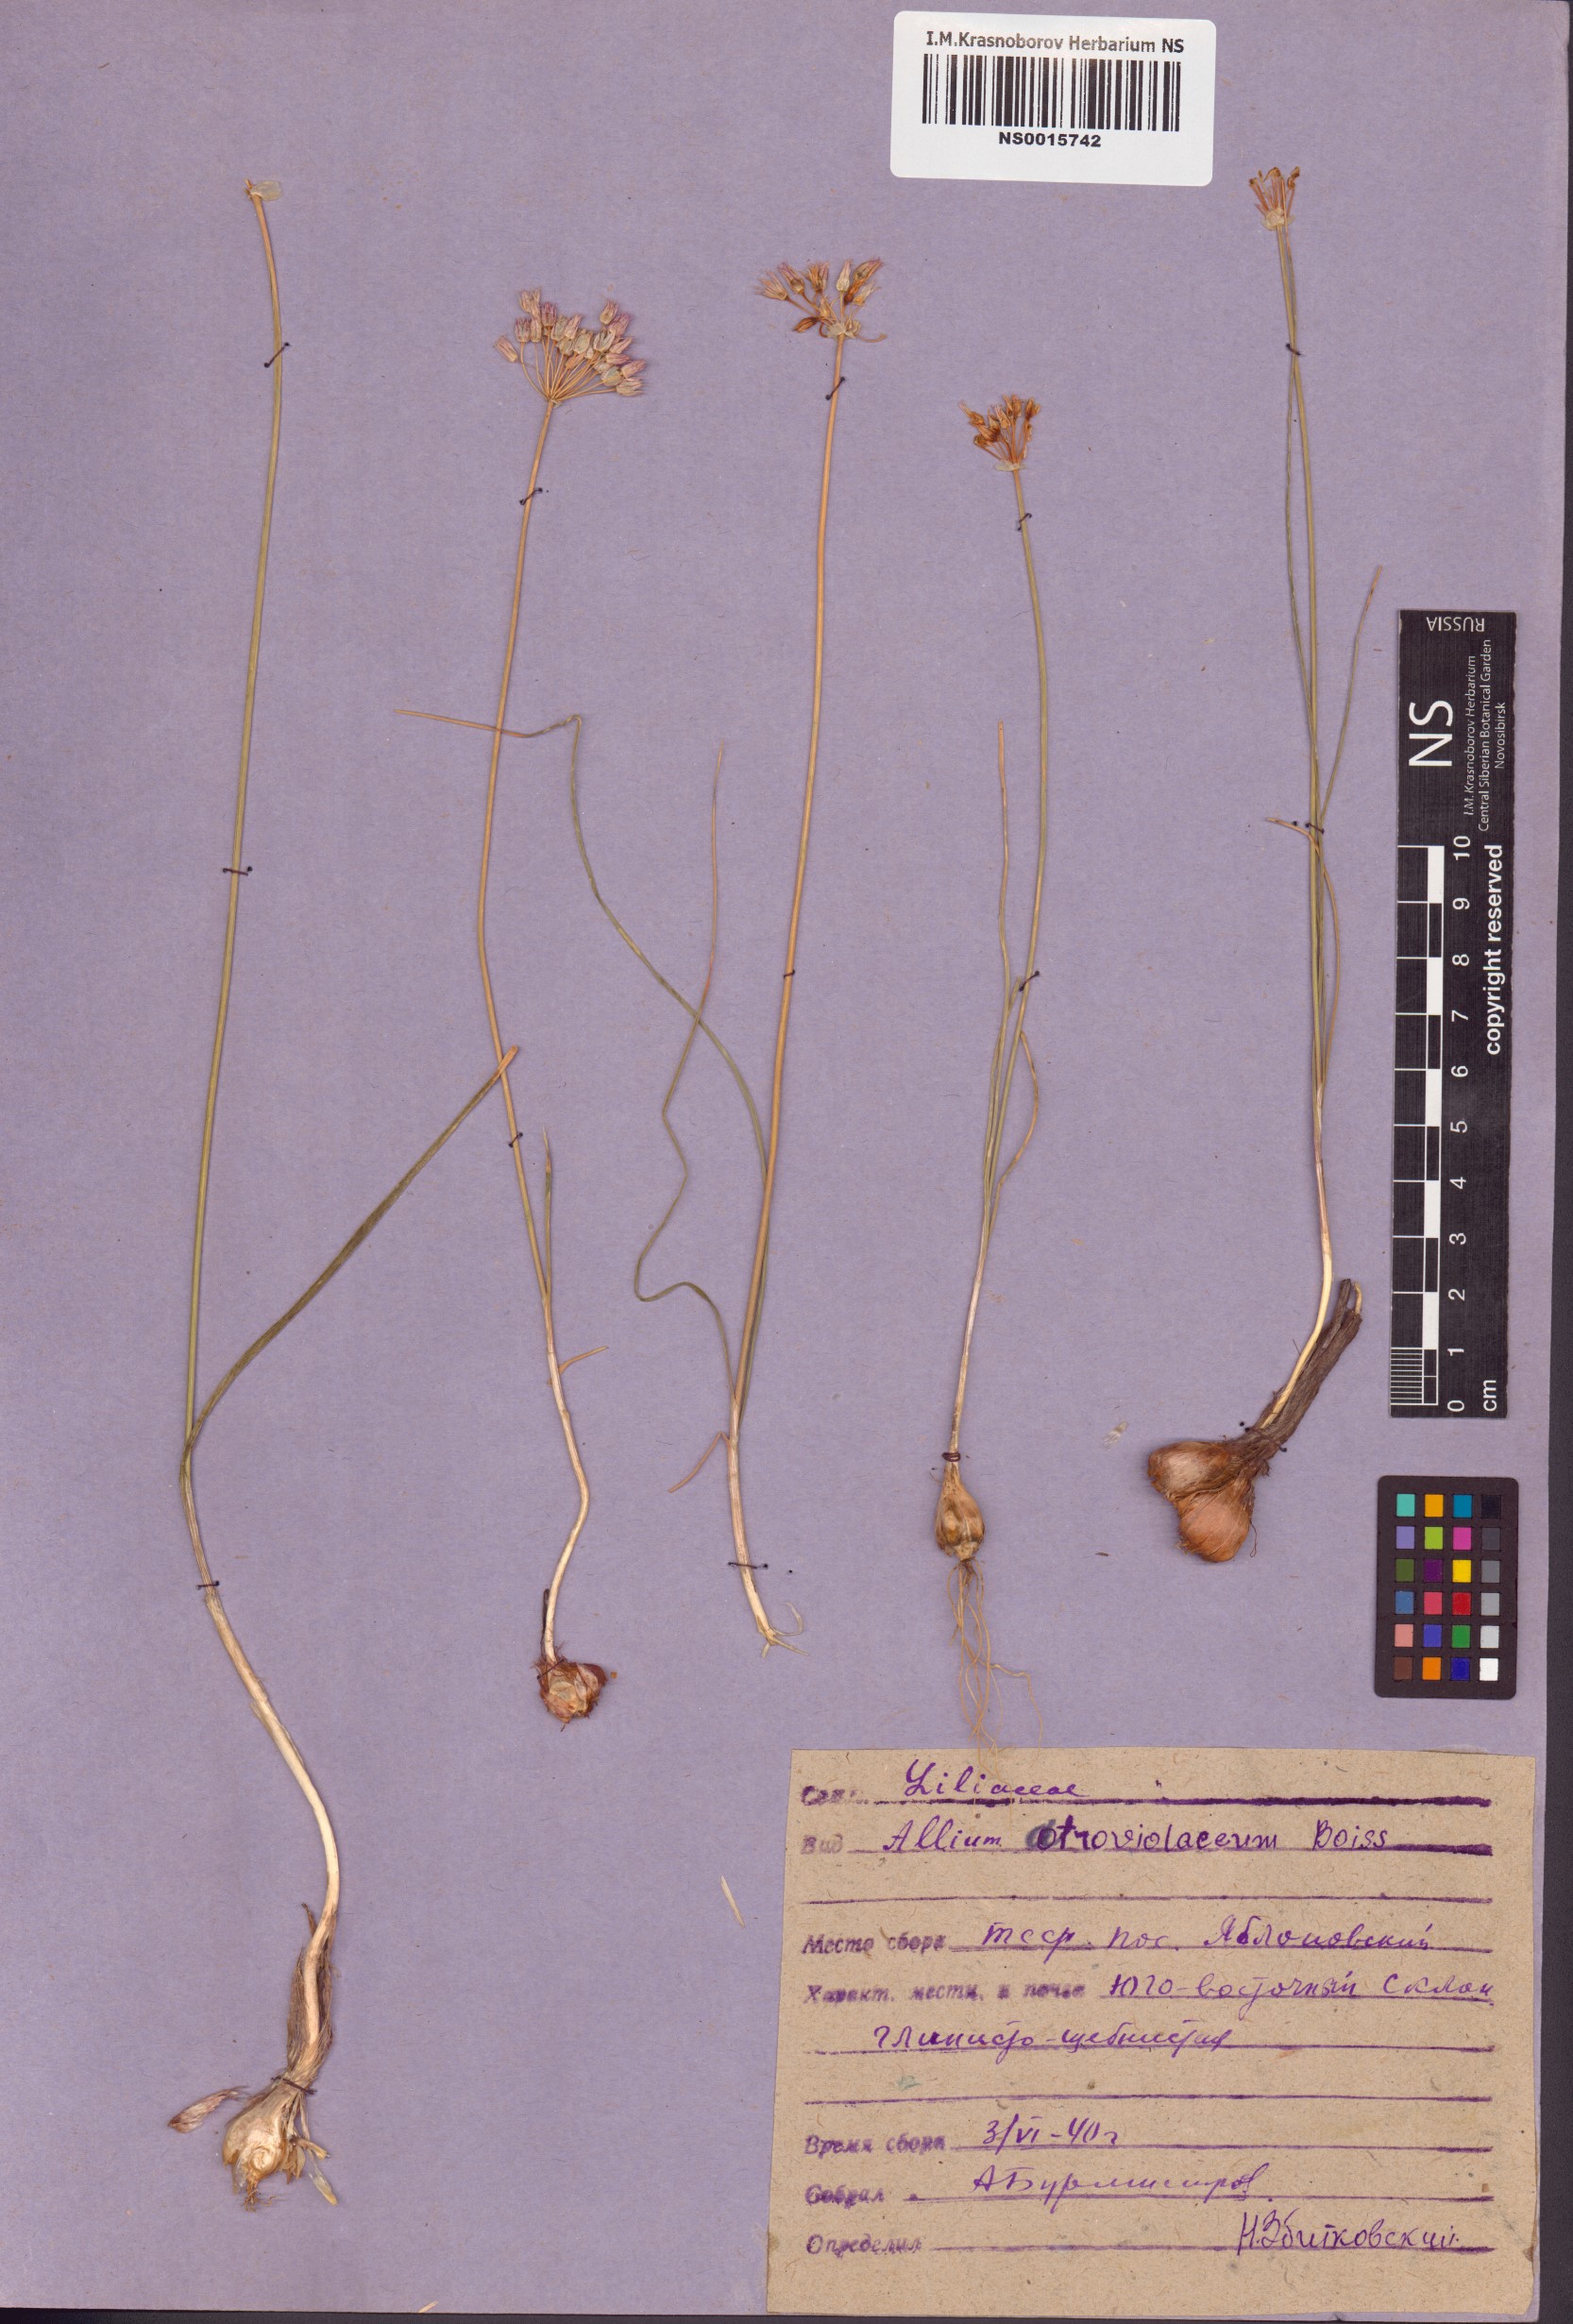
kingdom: Plantae
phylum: Tracheophyta
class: Liliopsida
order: Asparagales
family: Amaryllidaceae
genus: Allium
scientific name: Allium atroviolaceum
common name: Broadleaf wild leek
